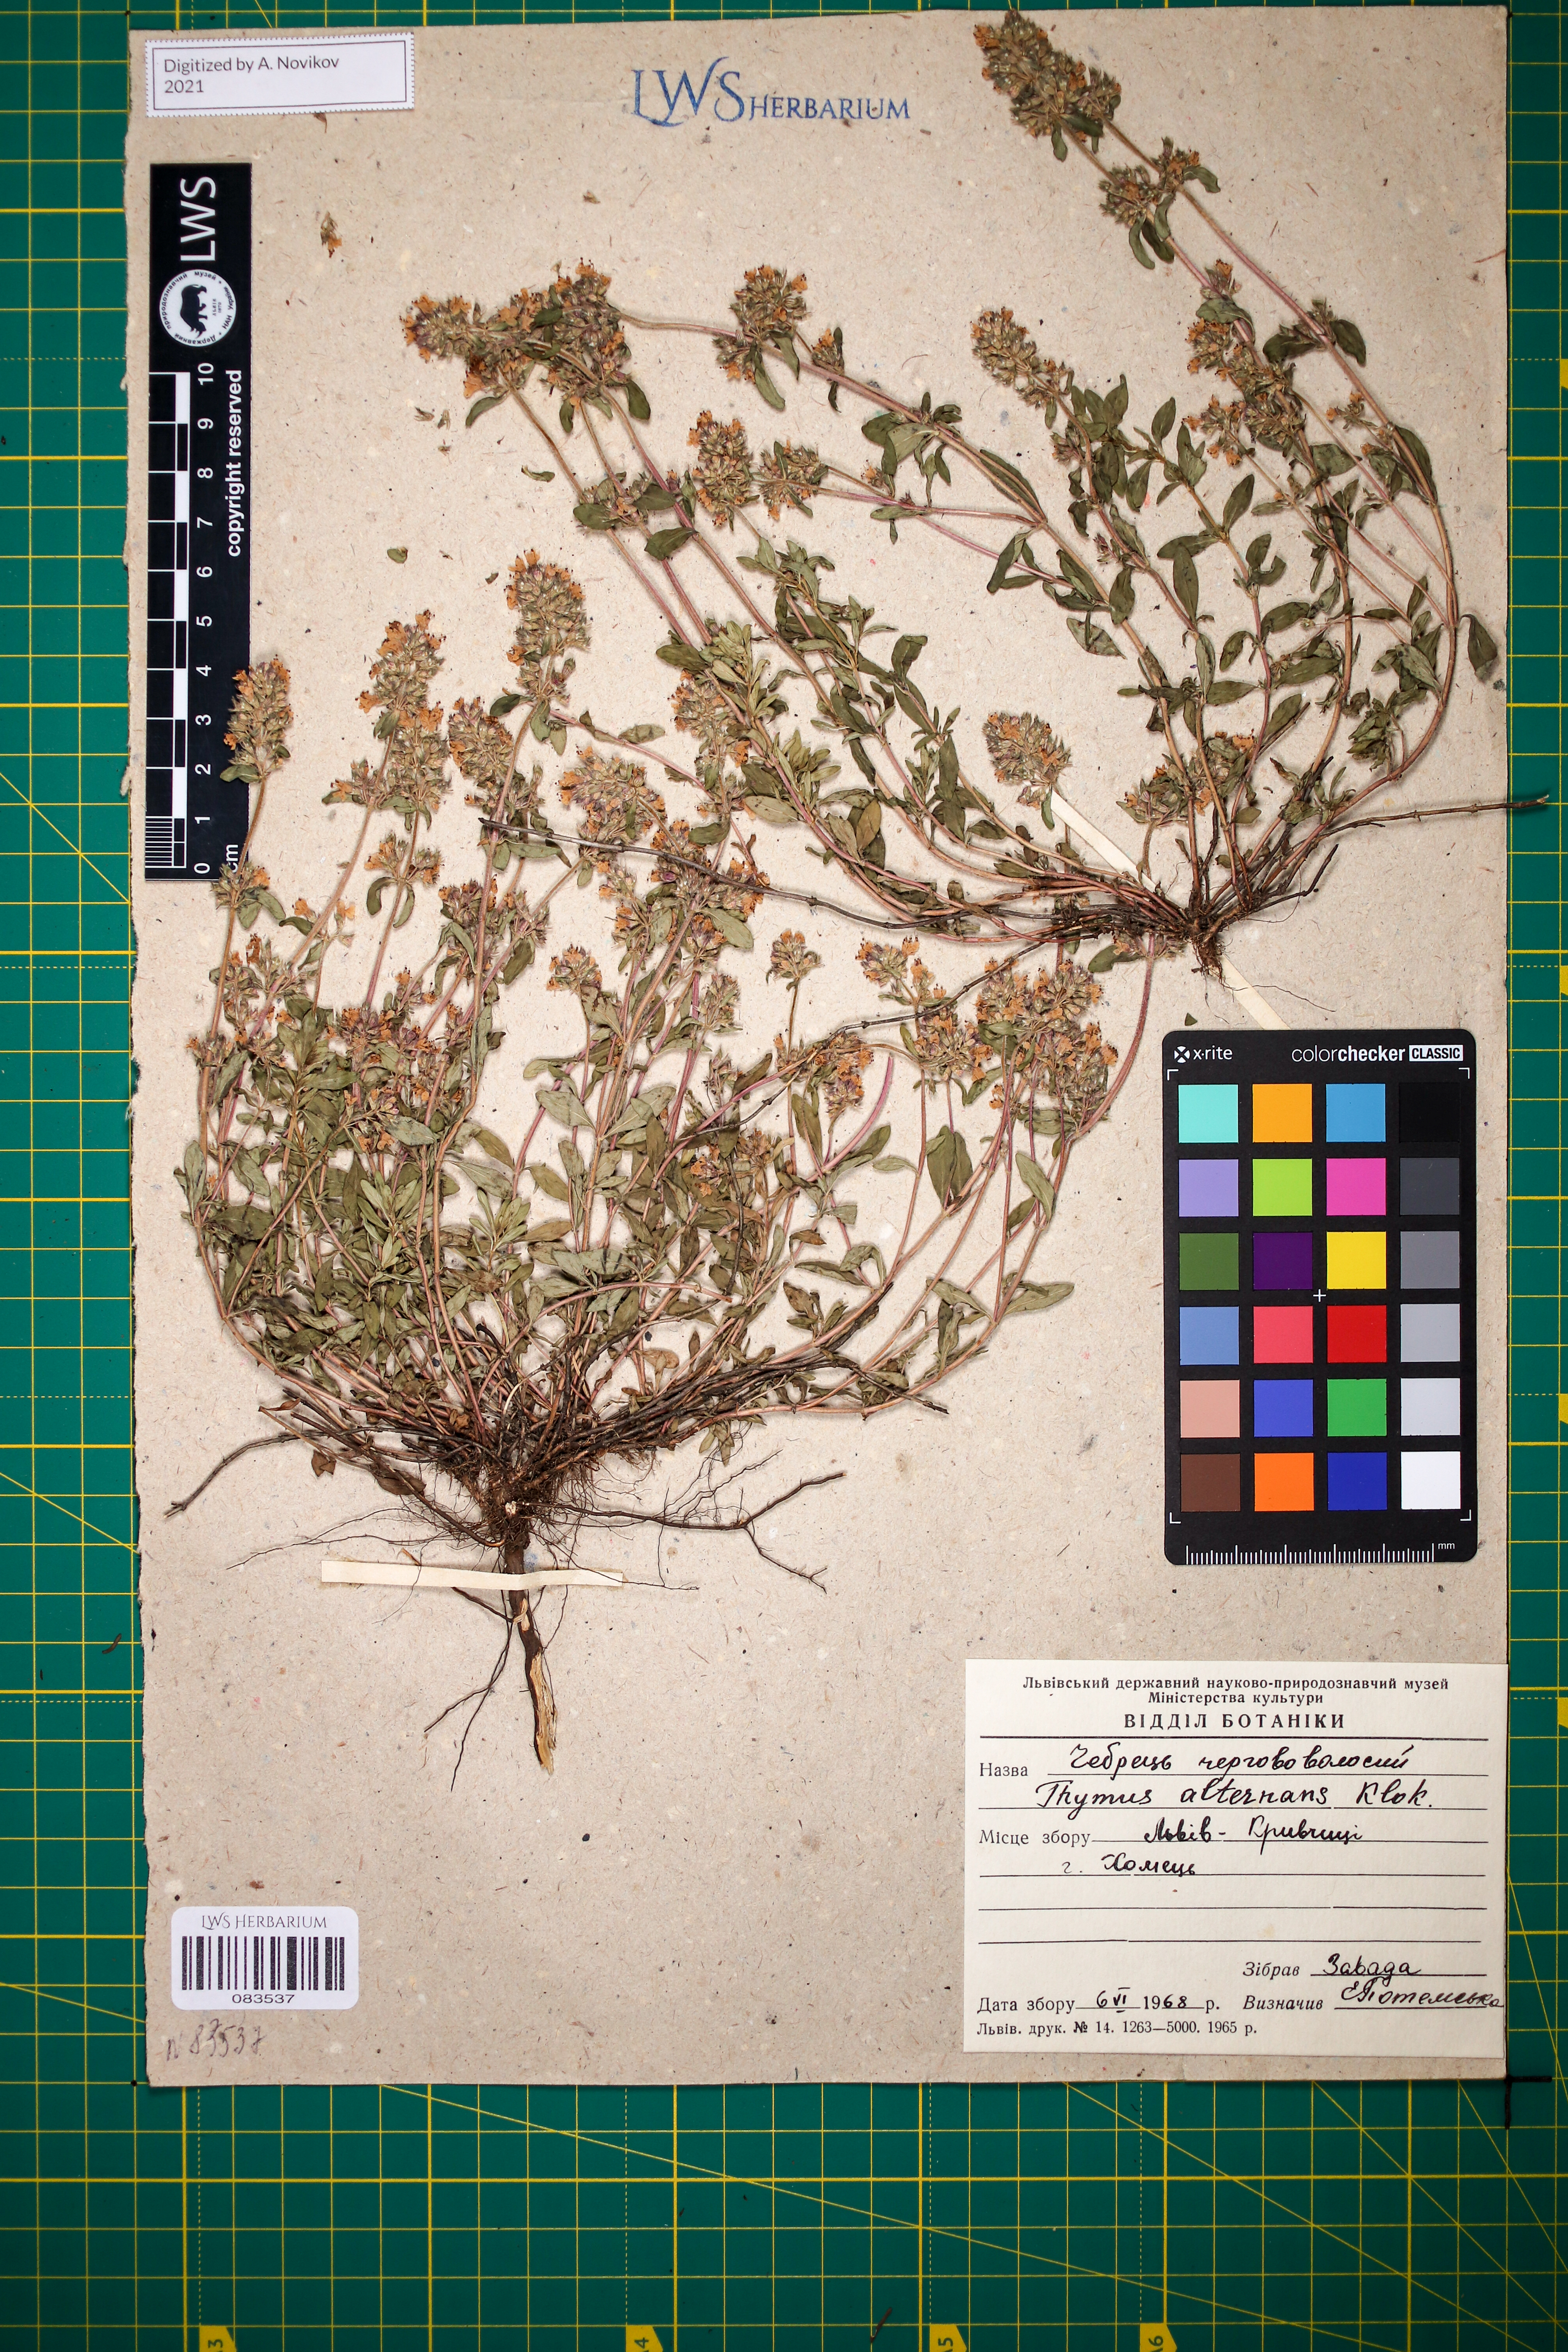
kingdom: Plantae
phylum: Tracheophyta
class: Magnoliopsida
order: Lamiales
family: Lamiaceae
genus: Thymus
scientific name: Thymus alternans
